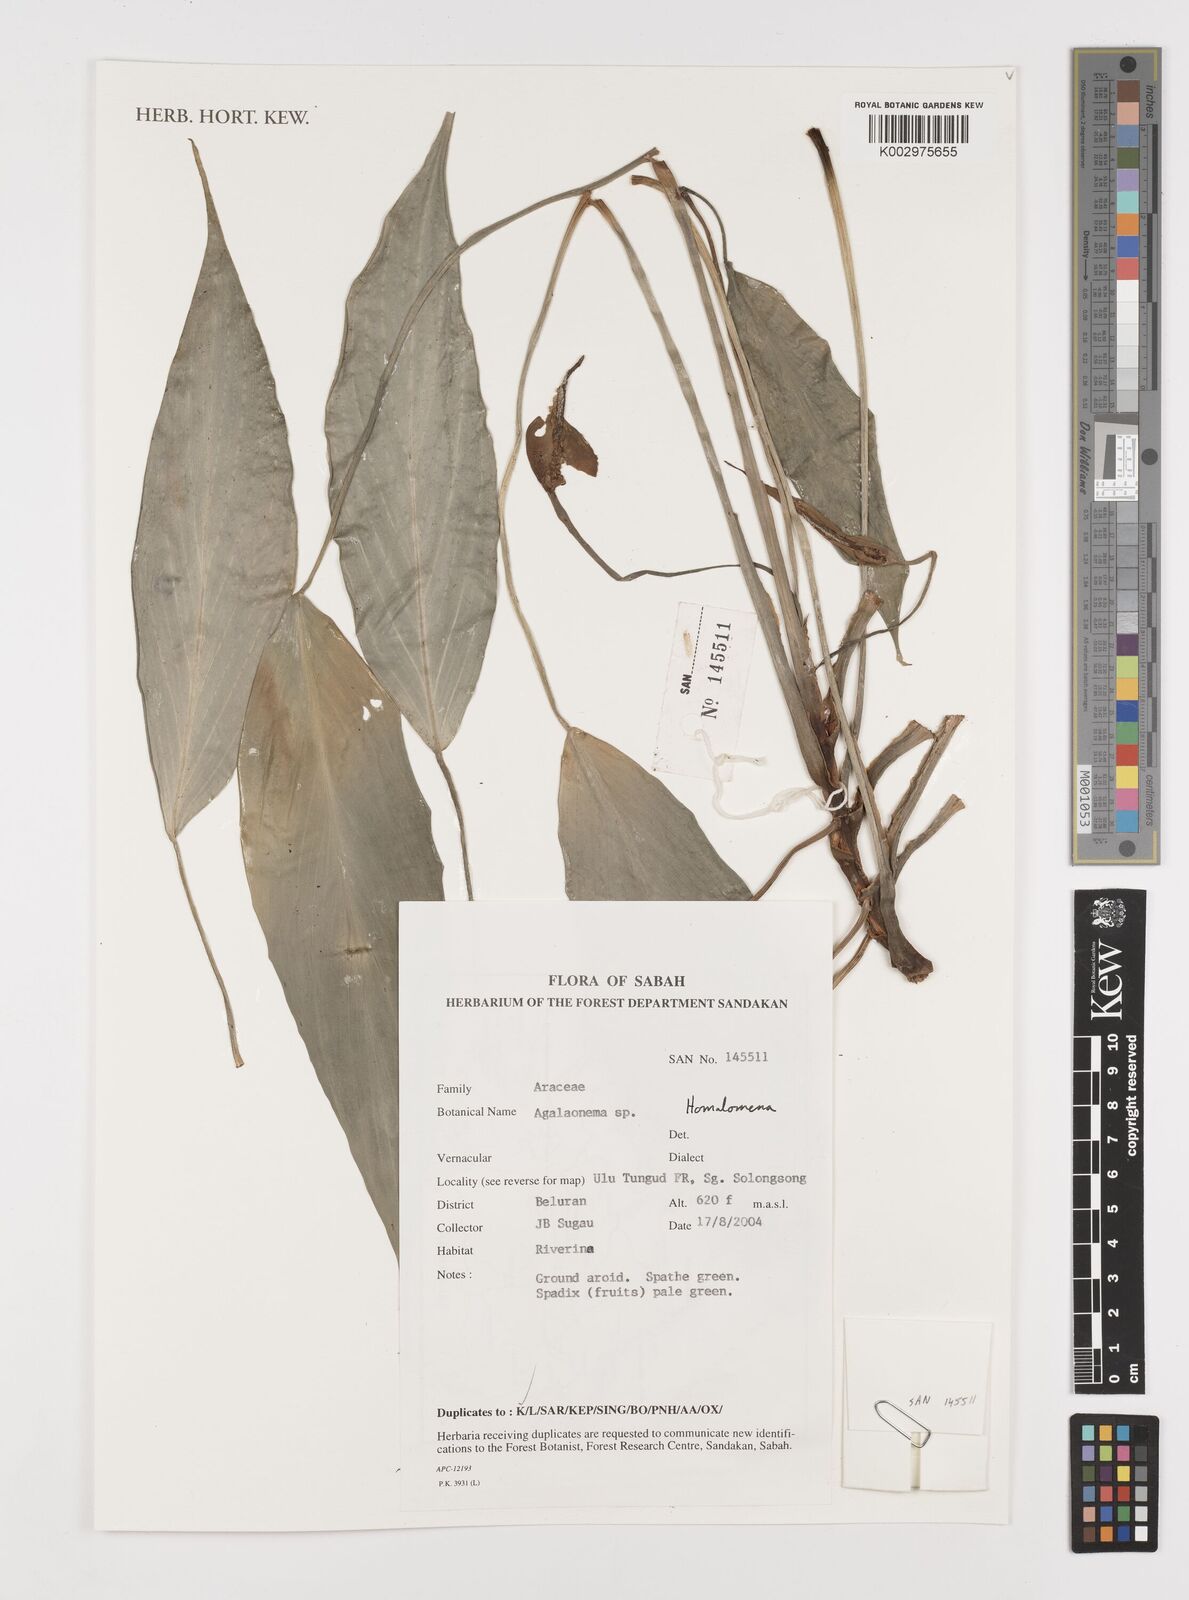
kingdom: Plantae
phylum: Tracheophyta
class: Liliopsida
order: Alismatales
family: Araceae
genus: Homalomena
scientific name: Homalomena
